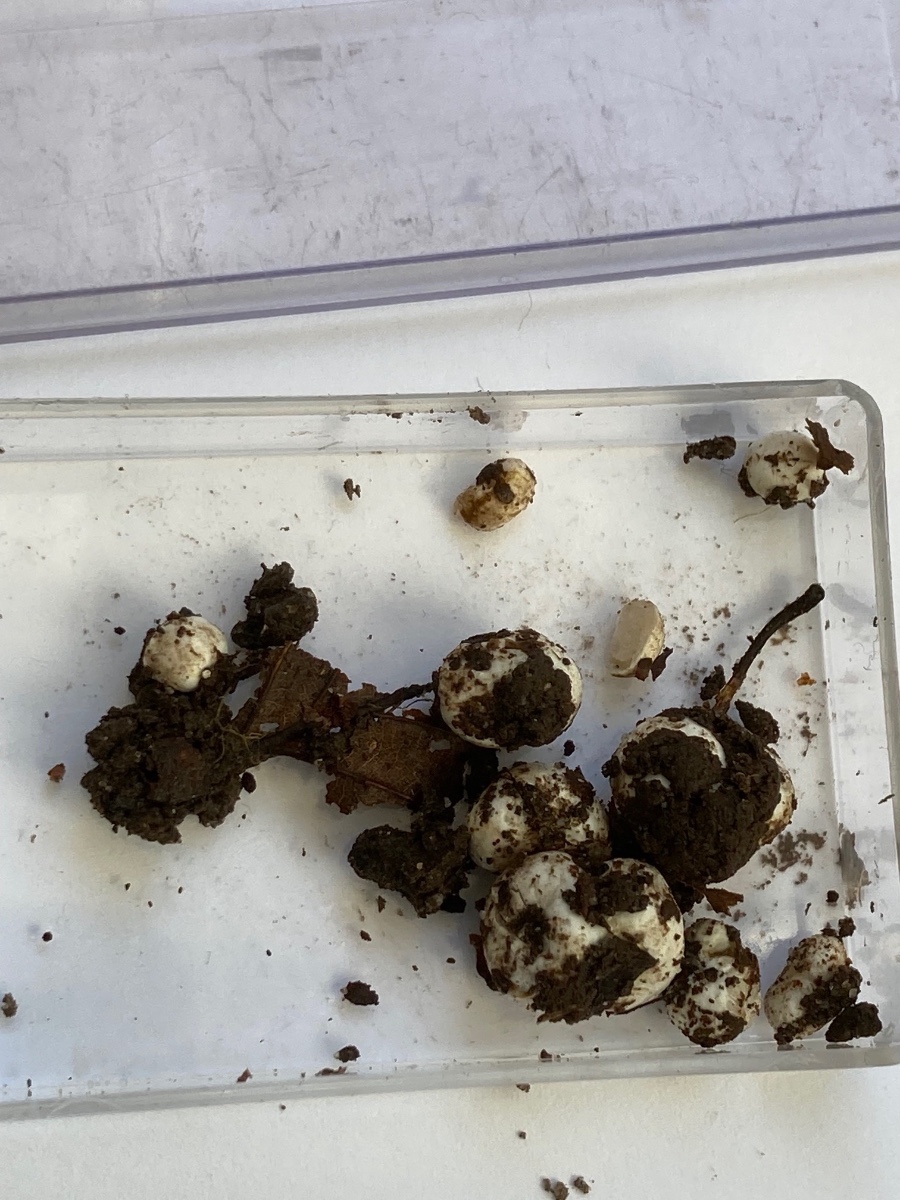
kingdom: Fungi
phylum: Basidiomycota
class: Agaricomycetes
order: Agaricales
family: Hymenogastraceae
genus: Hymenogaster
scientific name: Hymenogaster
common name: knoldtrøffel
